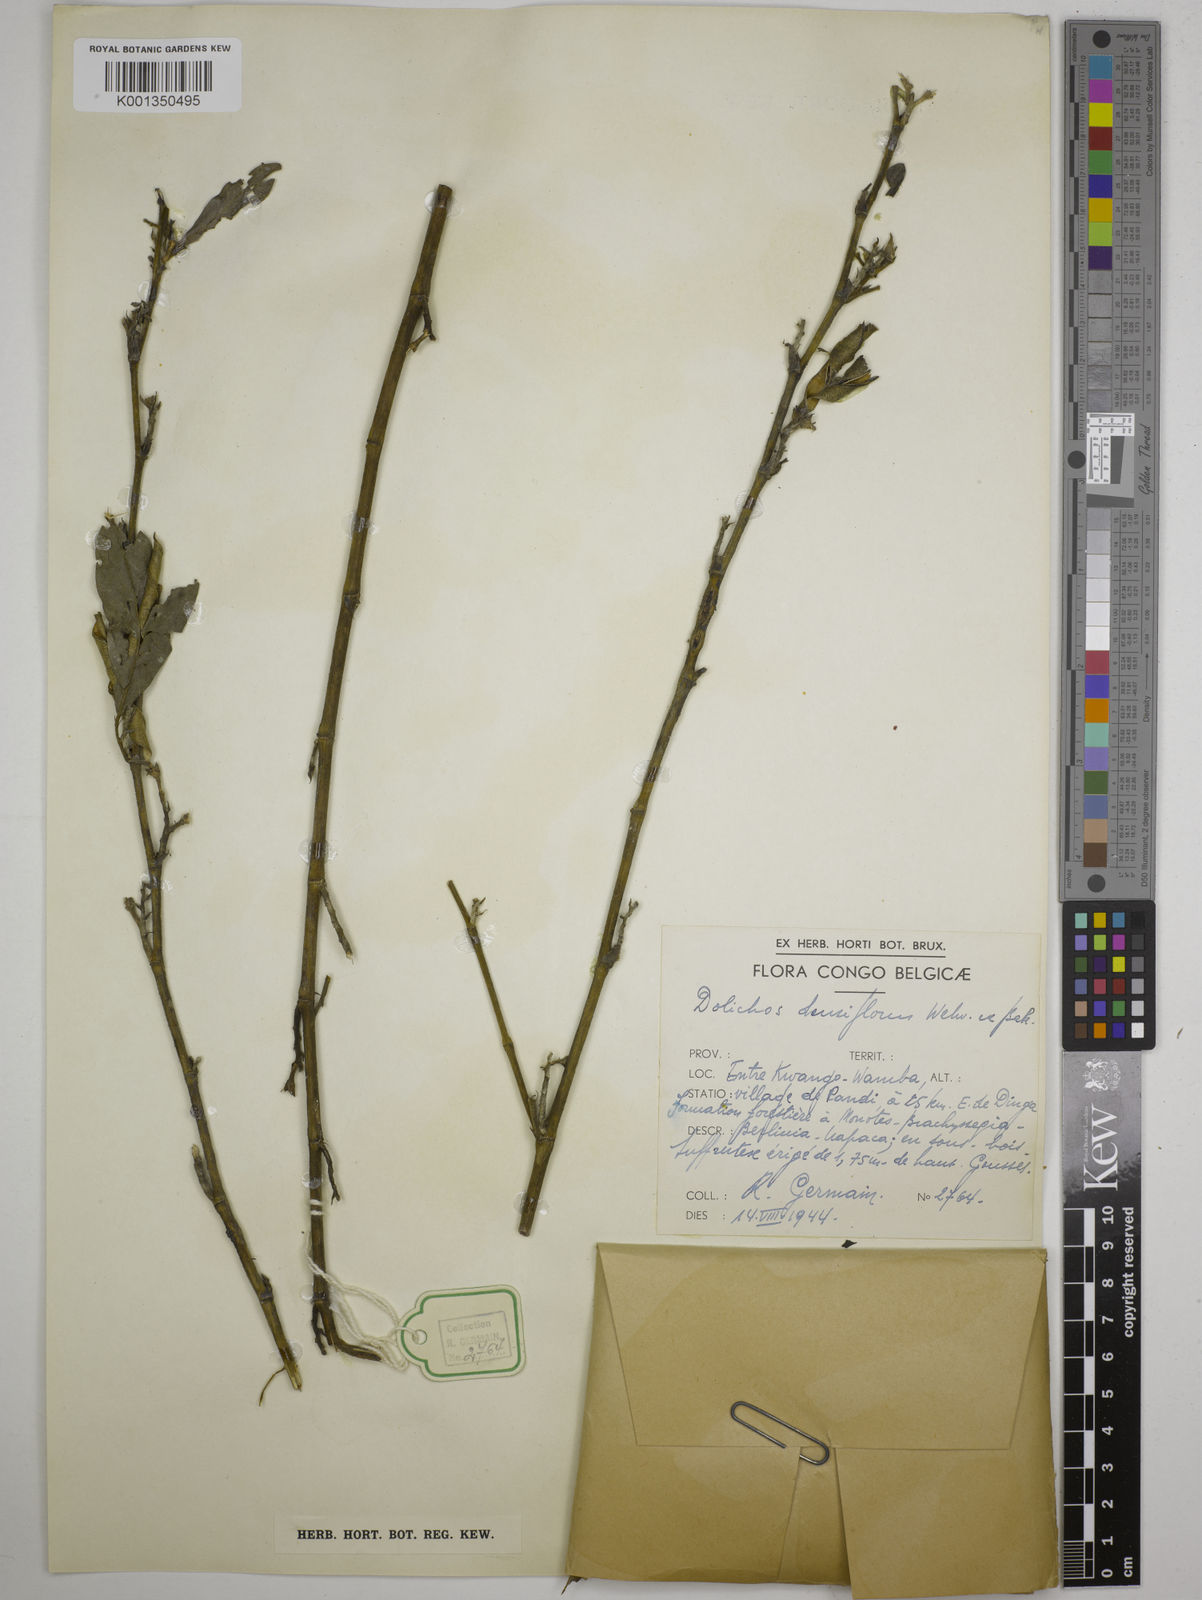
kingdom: Plantae
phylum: Tracheophyta
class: Magnoliopsida
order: Fabales
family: Fabaceae
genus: Macrotyloma
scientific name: Macrotyloma densiflorum
